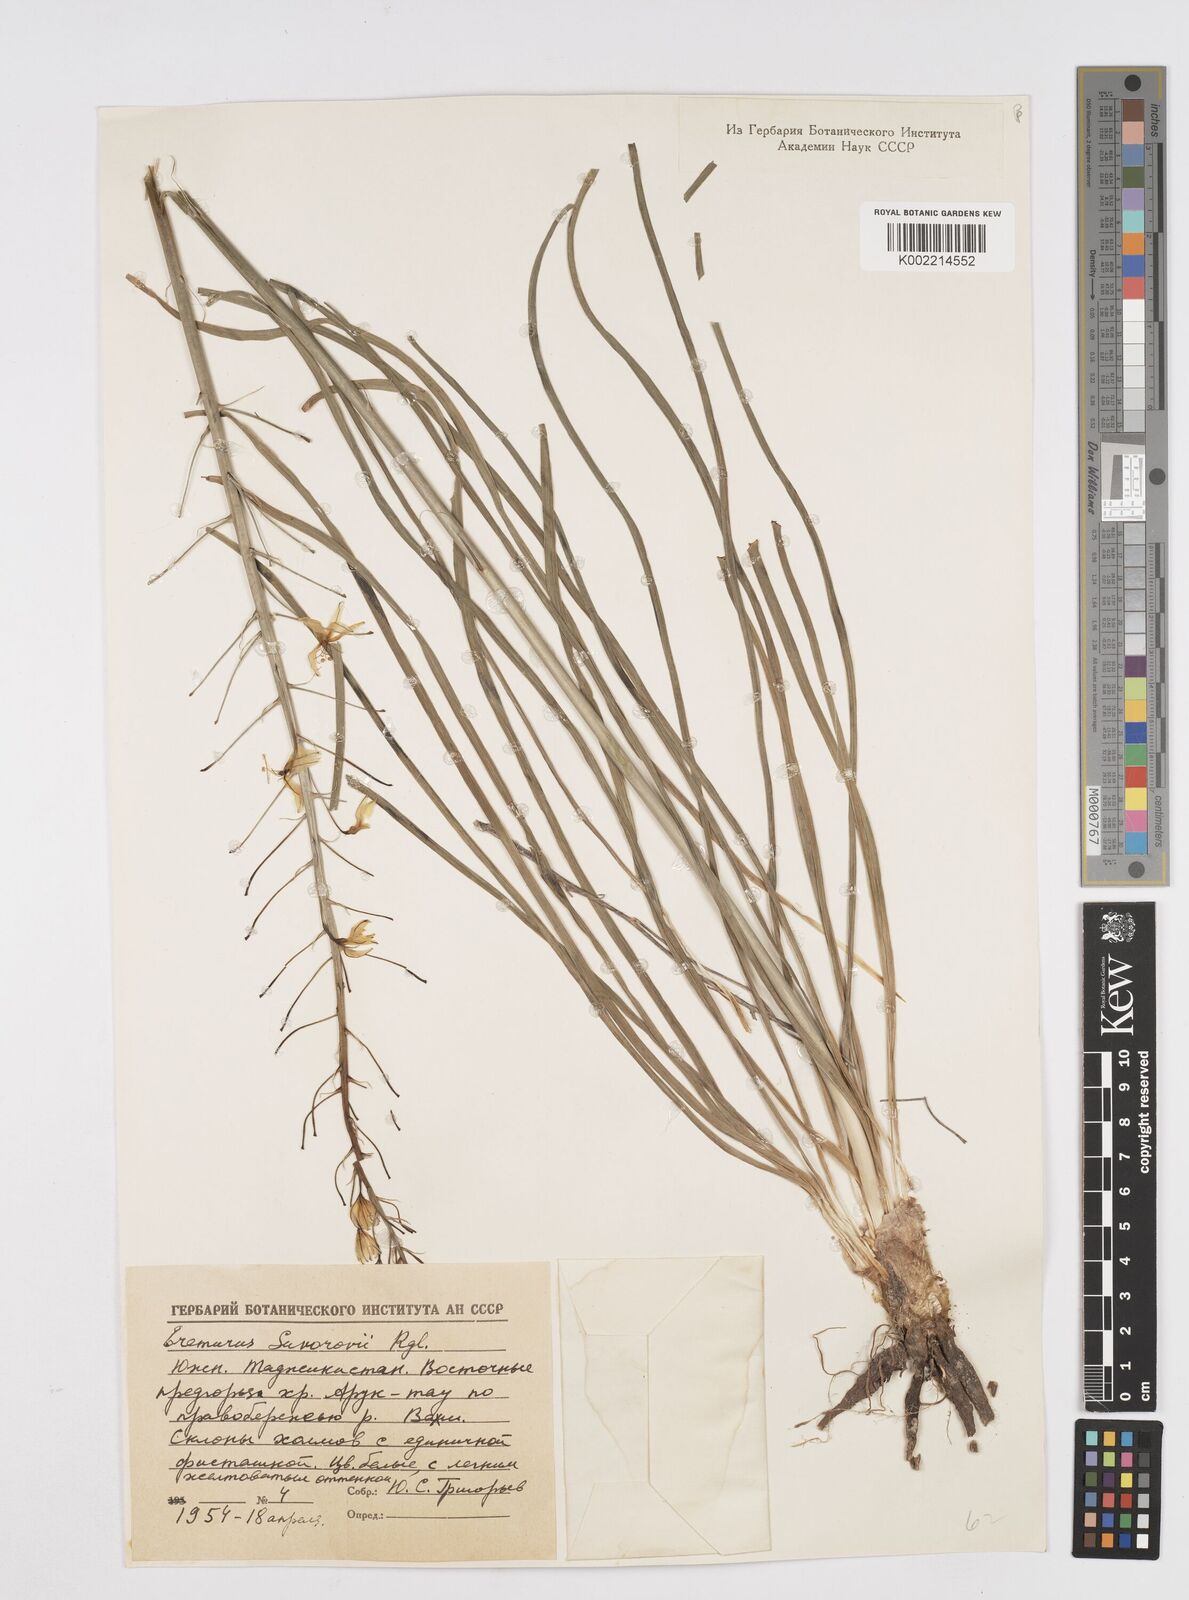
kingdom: Plantae
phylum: Tracheophyta
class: Liliopsida
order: Asparagales
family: Asphodelaceae
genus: Eremurus
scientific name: Eremurus bucharicus
